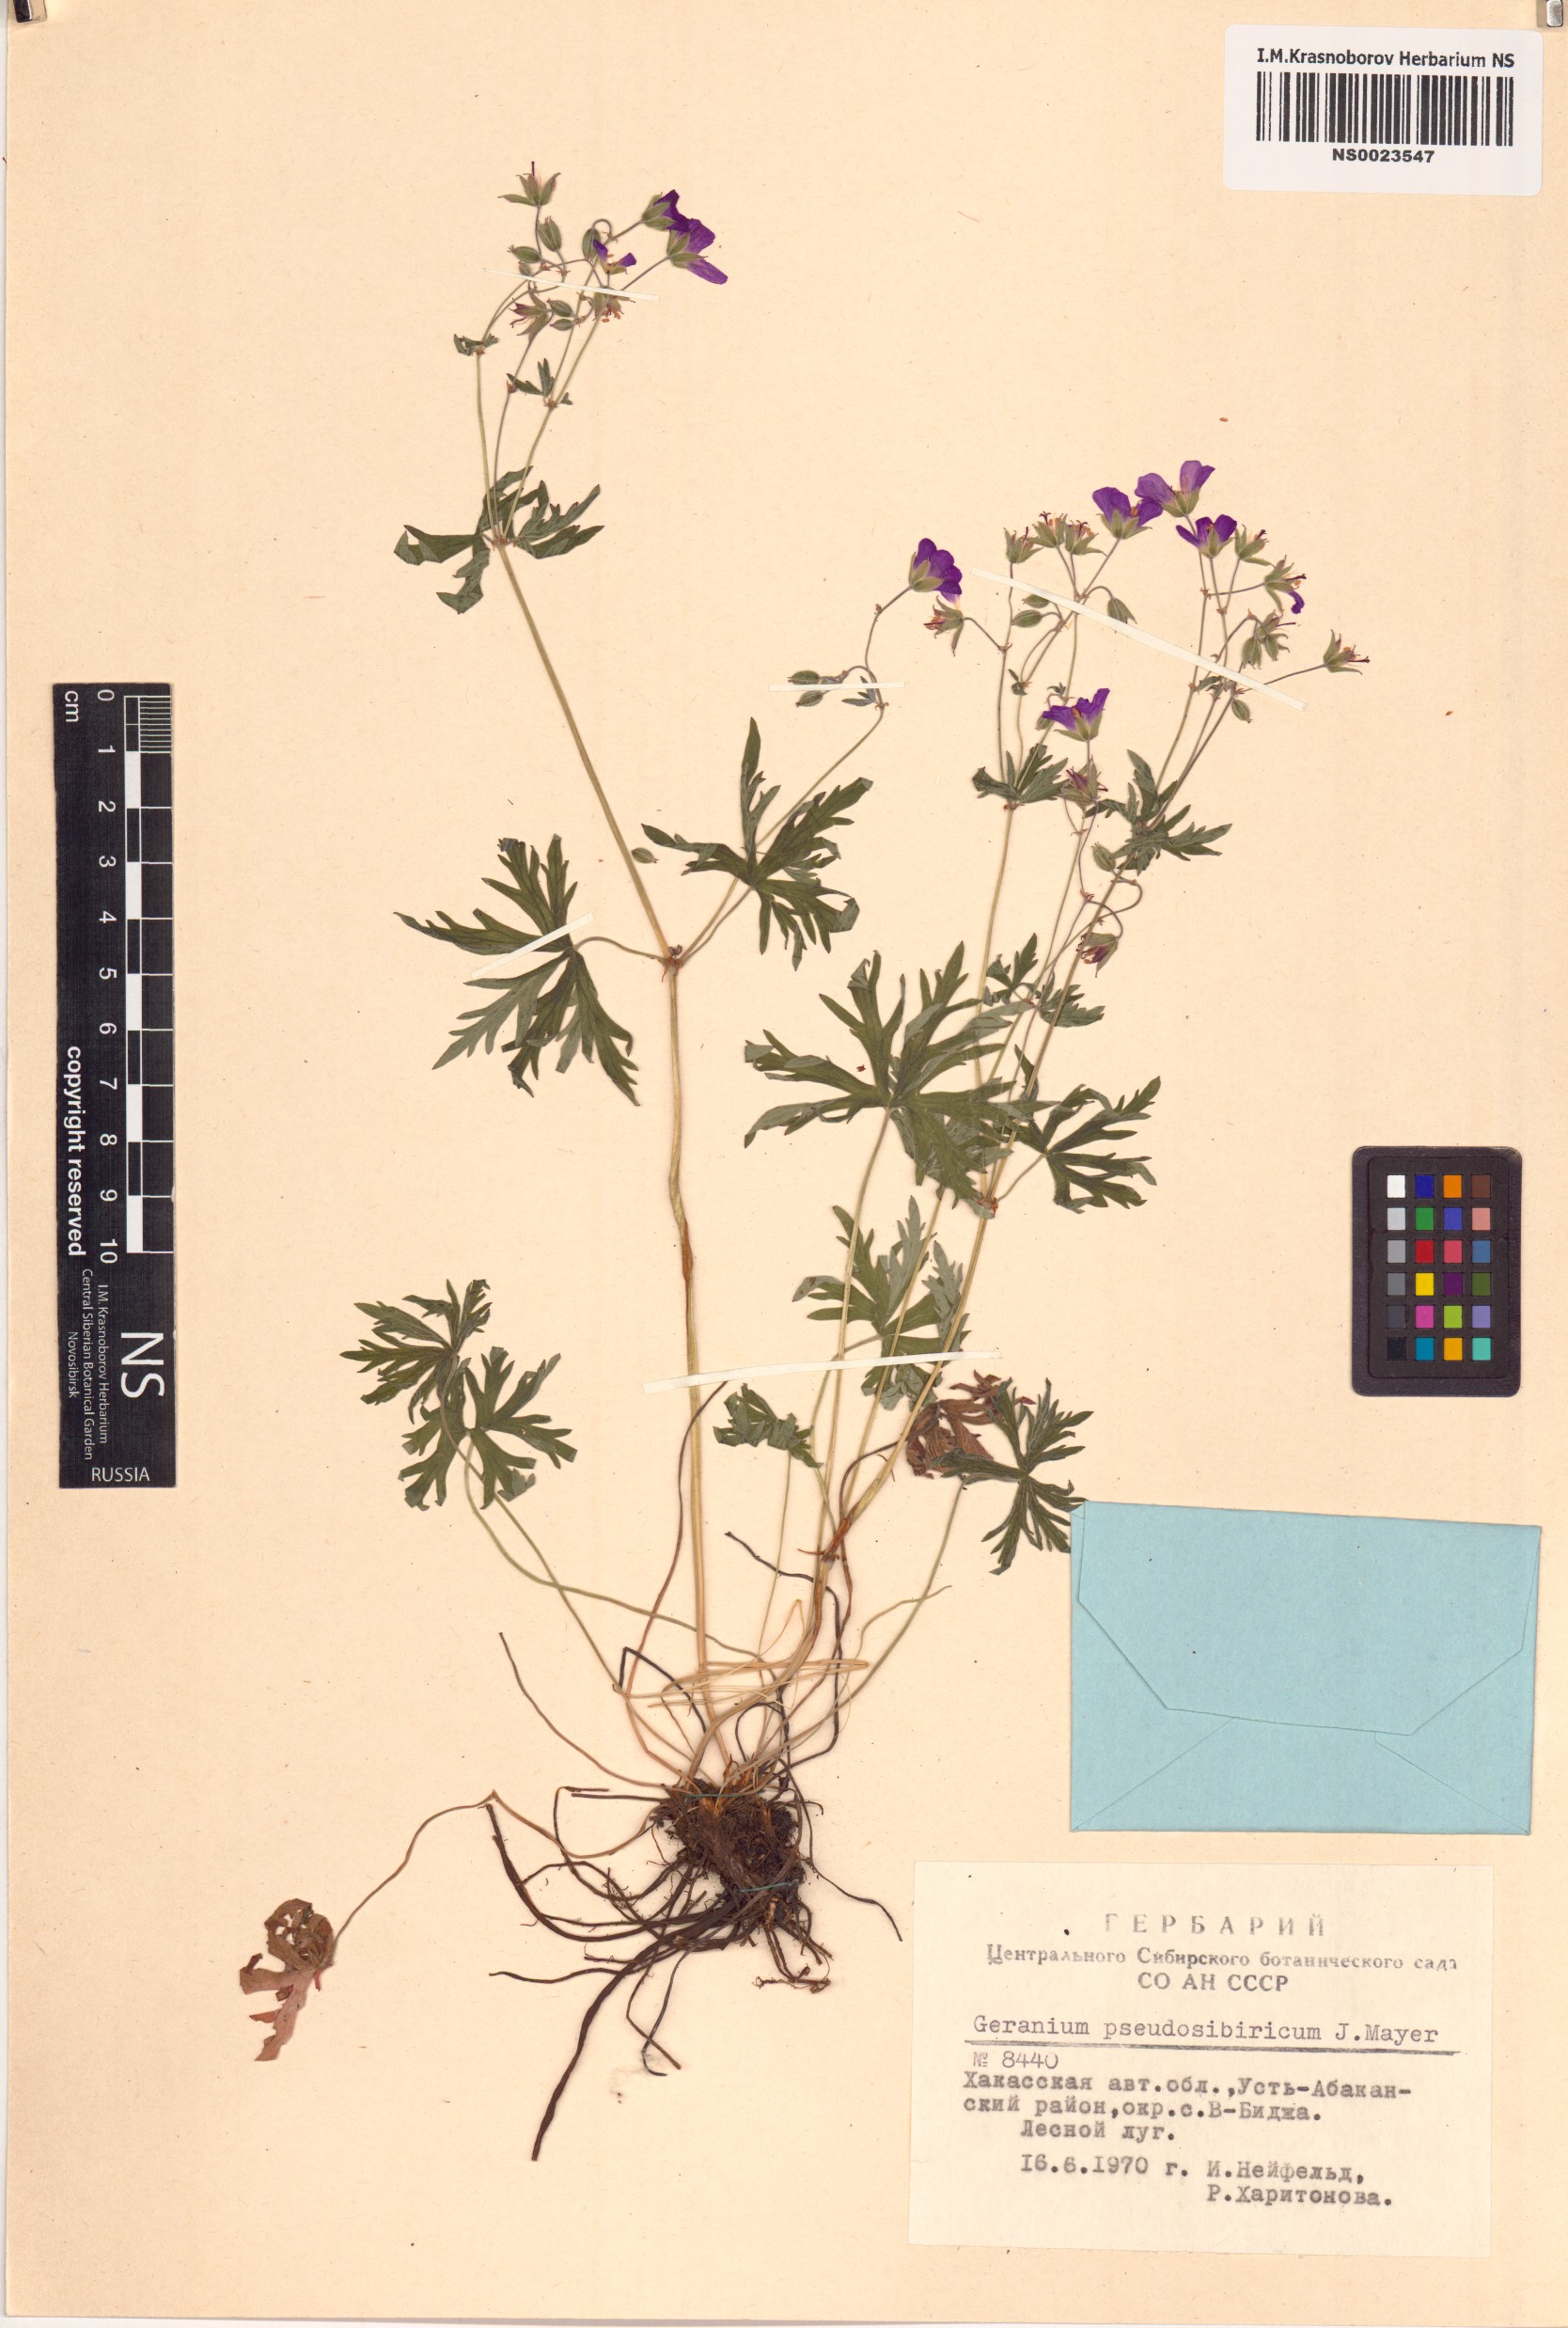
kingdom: Plantae
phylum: Tracheophyta
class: Magnoliopsida
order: Geraniales
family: Geraniaceae
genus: Geranium
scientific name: Geranium pseudosibiricum
